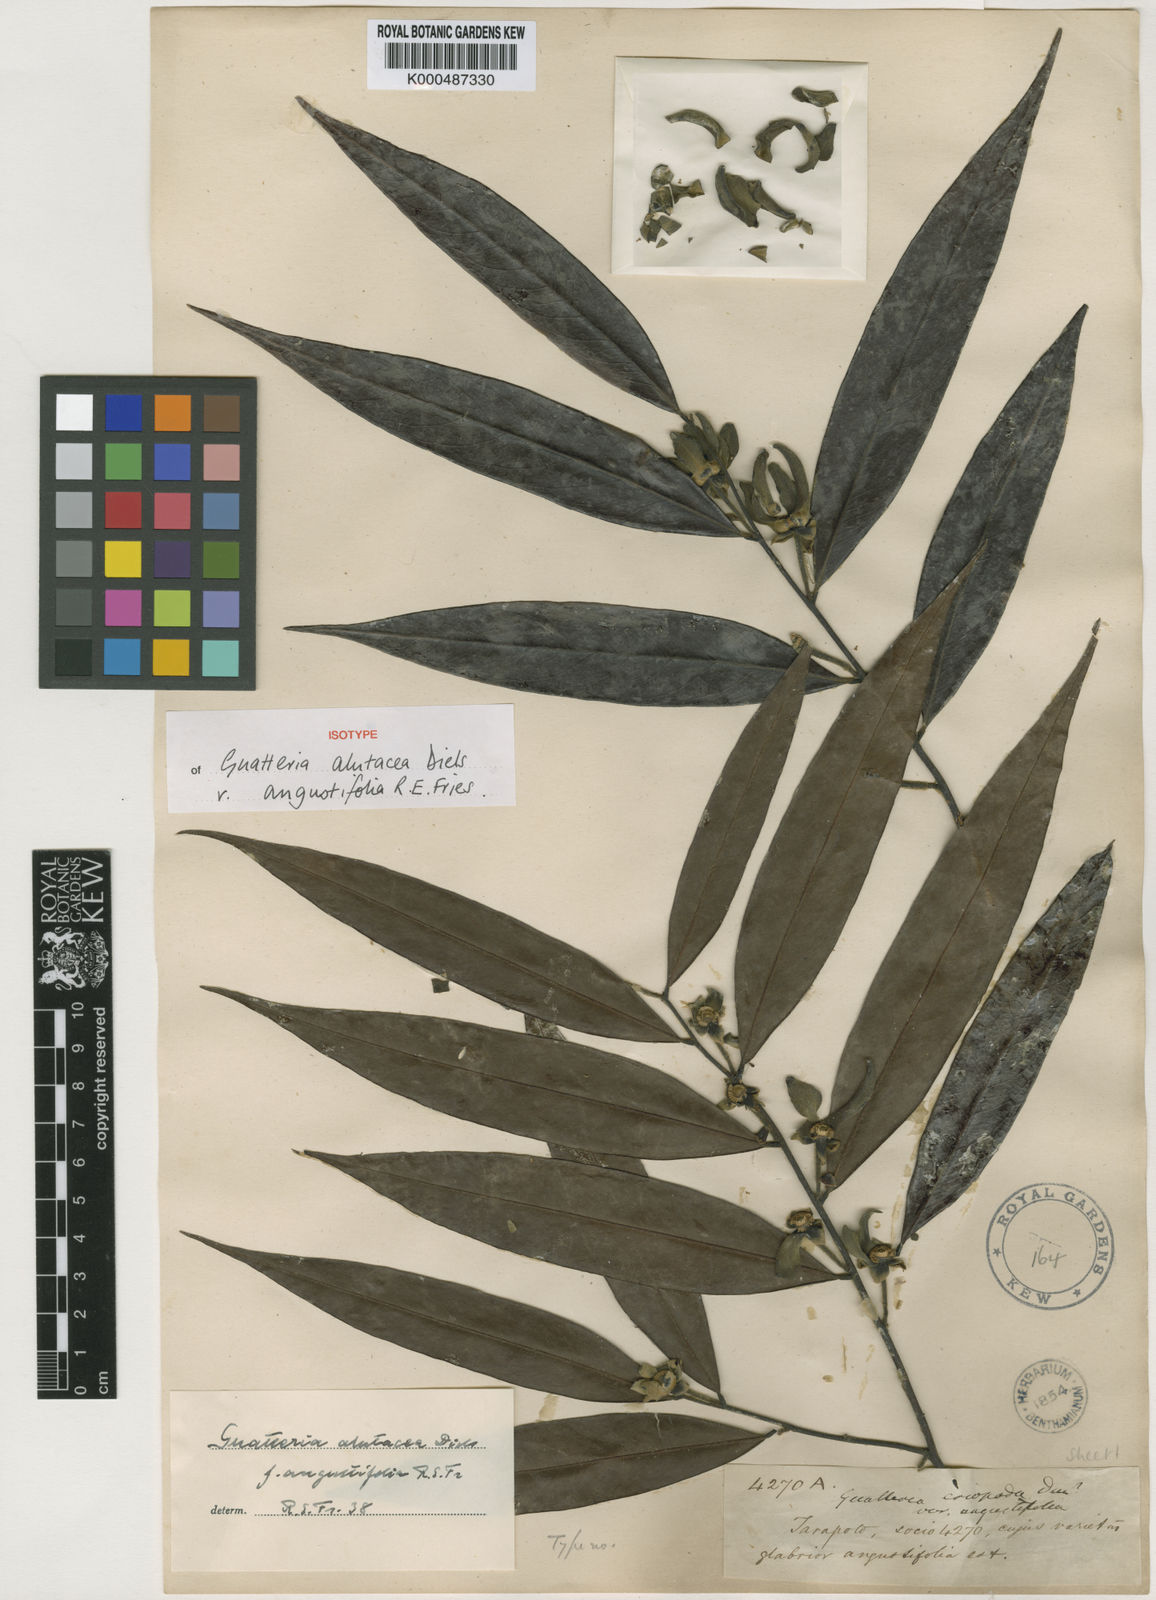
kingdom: Plantae
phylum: Tracheophyta
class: Magnoliopsida
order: Magnoliales
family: Annonaceae
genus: Guatteria
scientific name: Guatteria alutacea
